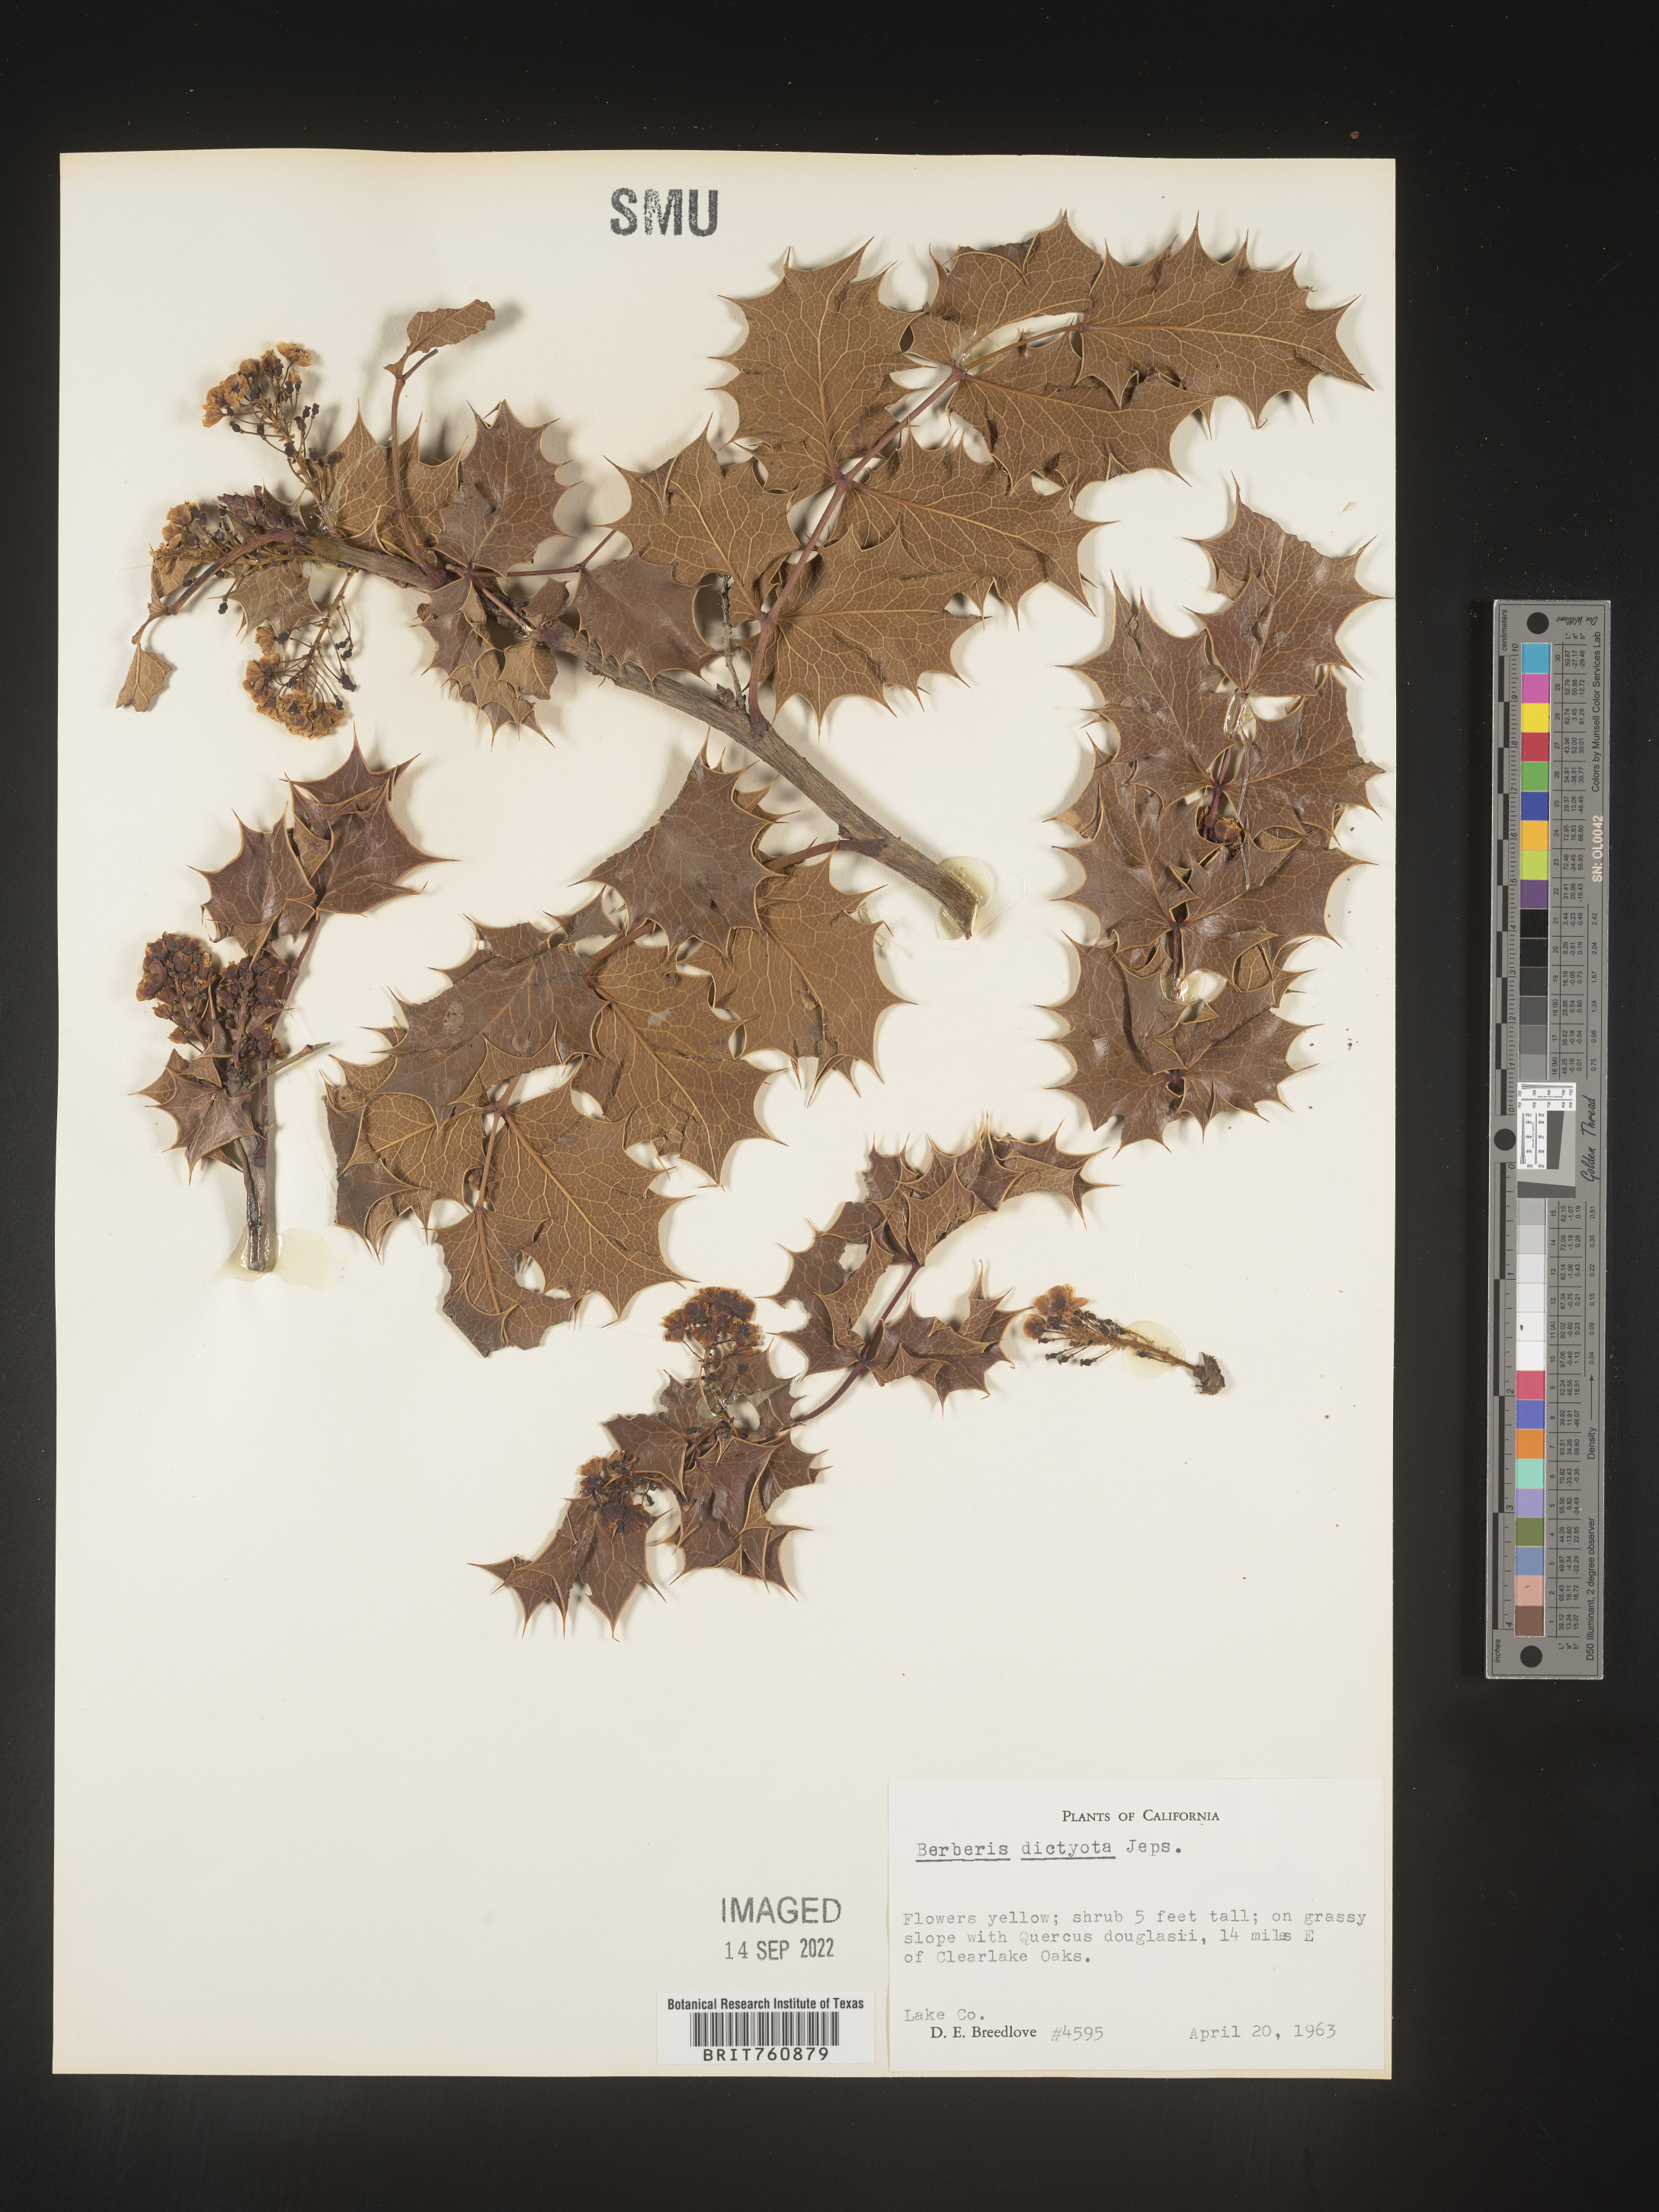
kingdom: Plantae
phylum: Tracheophyta
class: Magnoliopsida
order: Ranunculales
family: Berberidaceae
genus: Mahonia
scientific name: Mahonia
